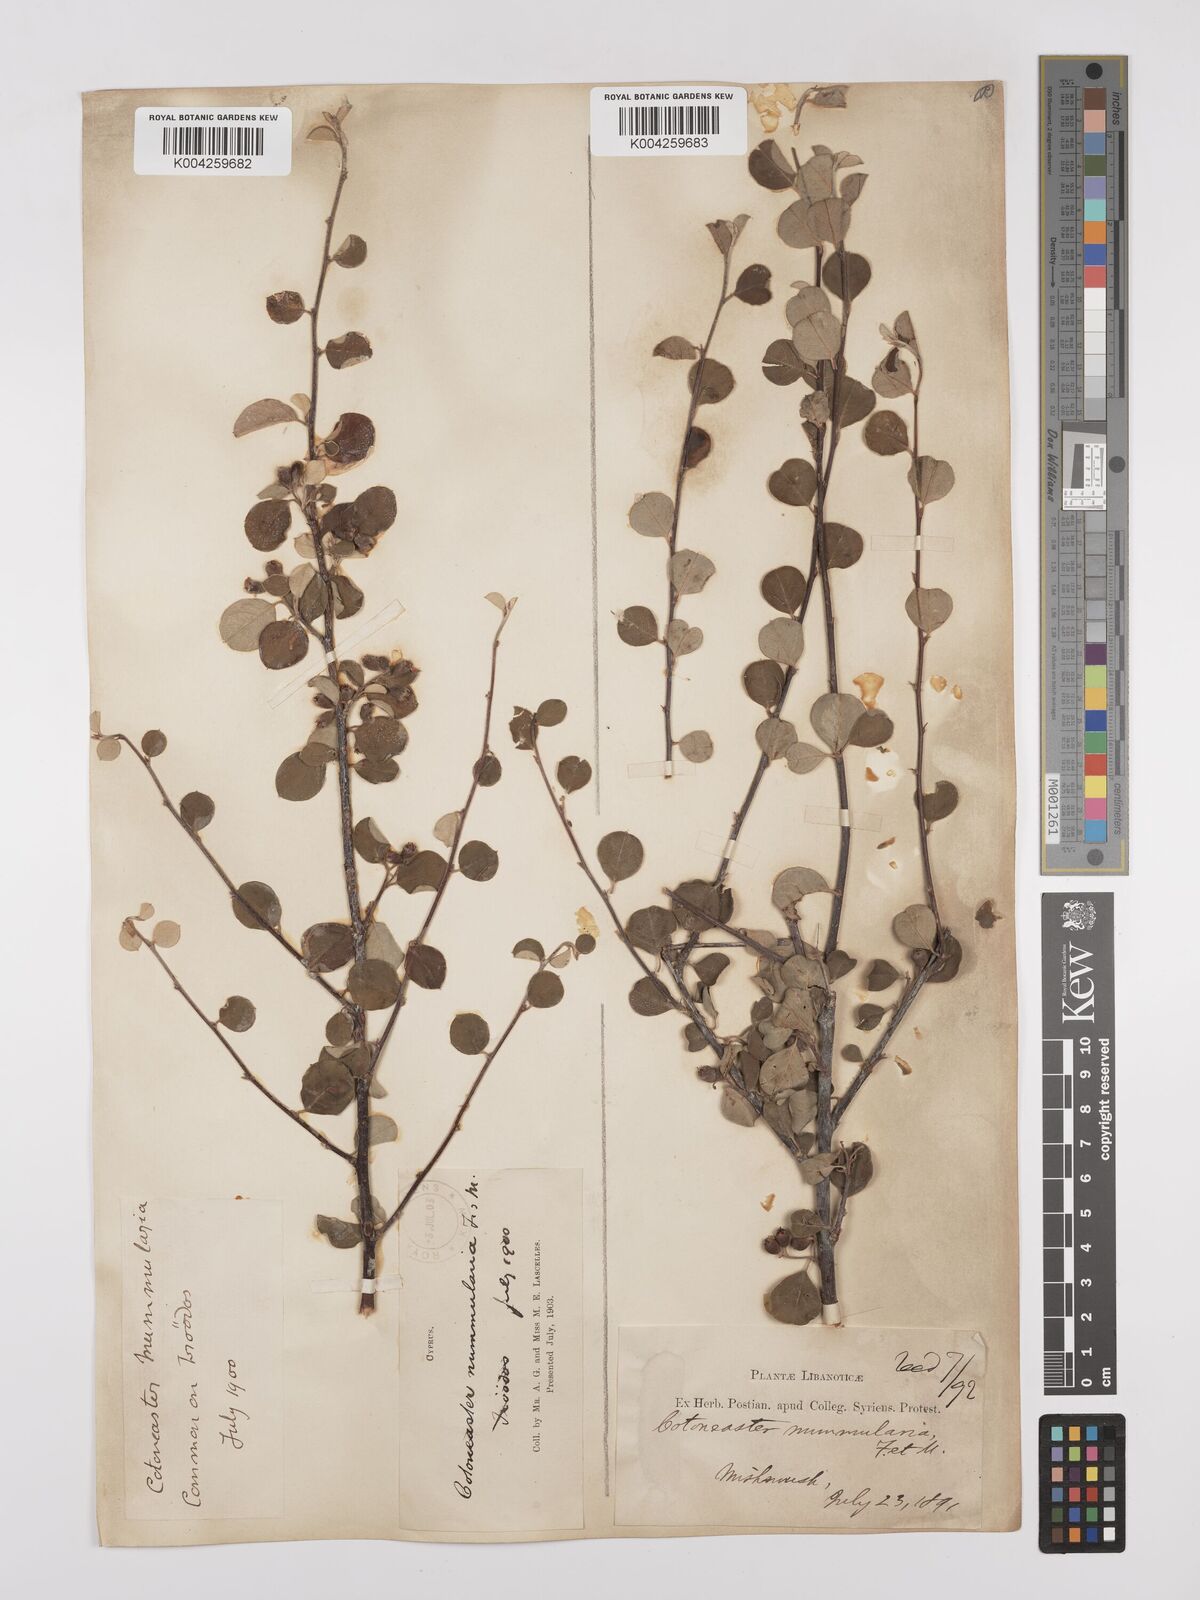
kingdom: Plantae
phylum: Tracheophyta
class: Magnoliopsida
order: Rosales
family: Rosaceae
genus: Cotoneaster
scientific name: Cotoneaster nummularius
